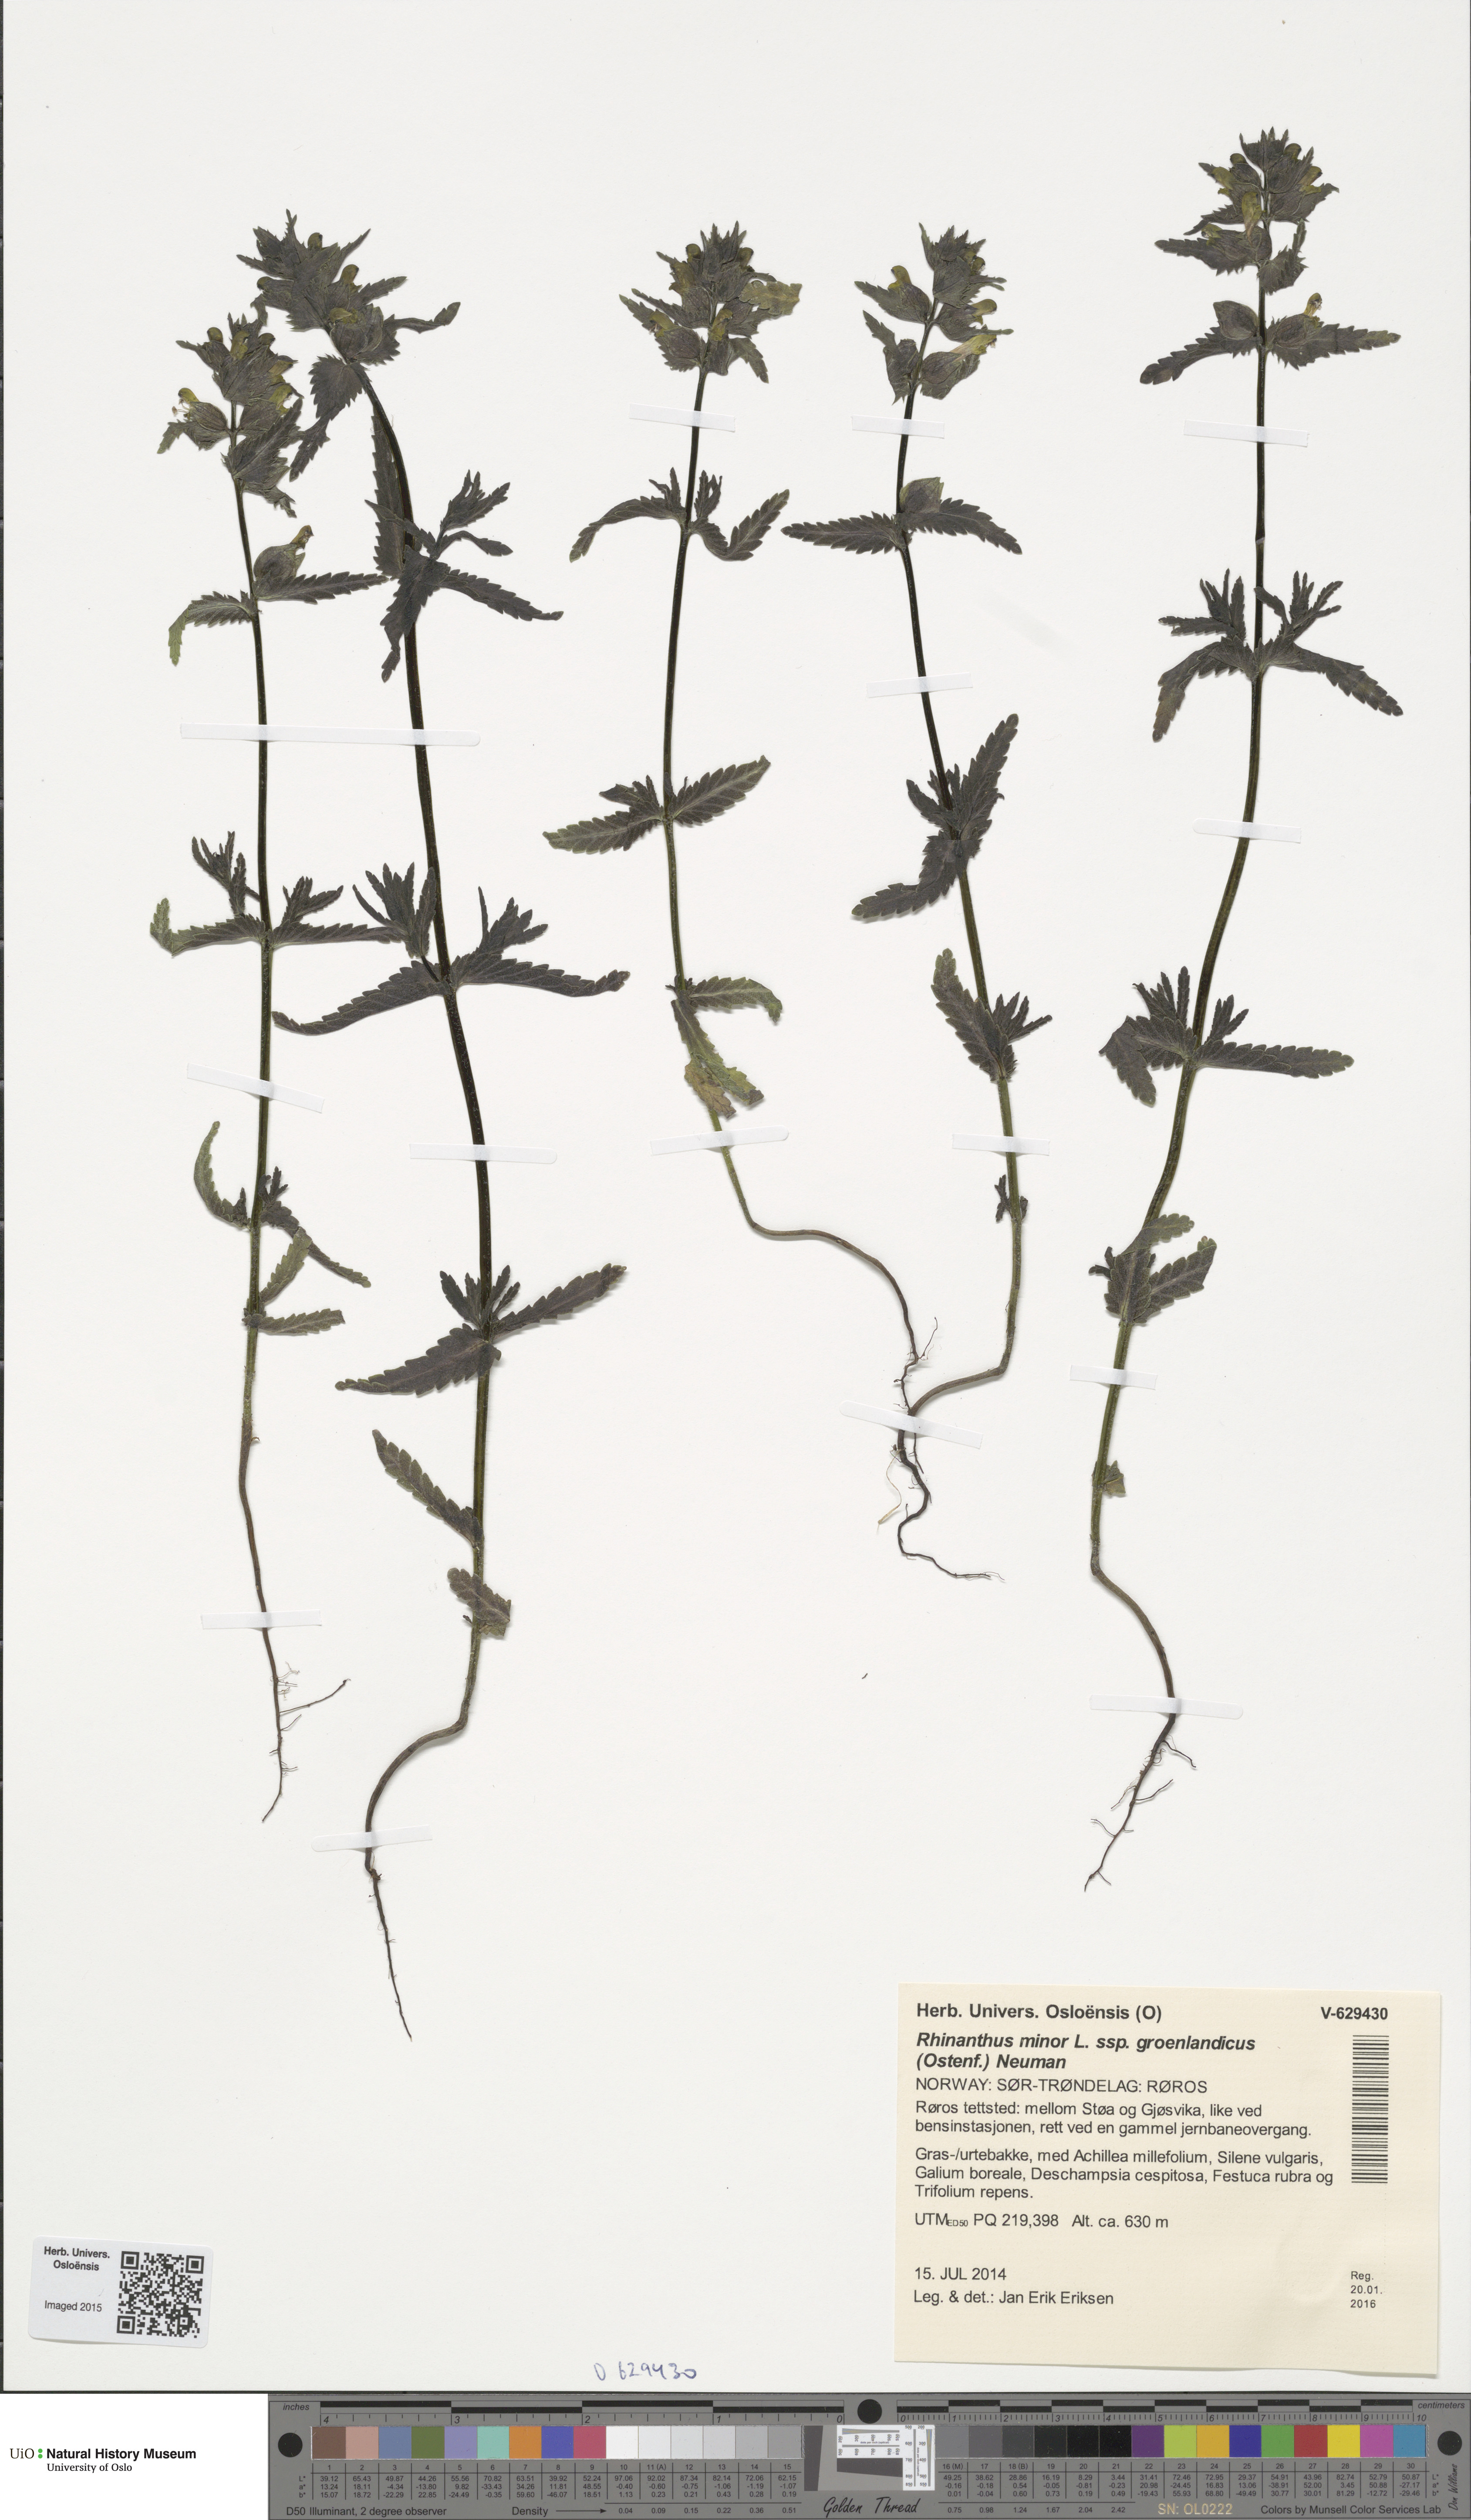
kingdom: Plantae
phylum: Tracheophyta
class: Magnoliopsida
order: Lamiales
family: Orobanchaceae
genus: Rhinanthus
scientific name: Rhinanthus groenlandicus
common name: Little yellow rattle
